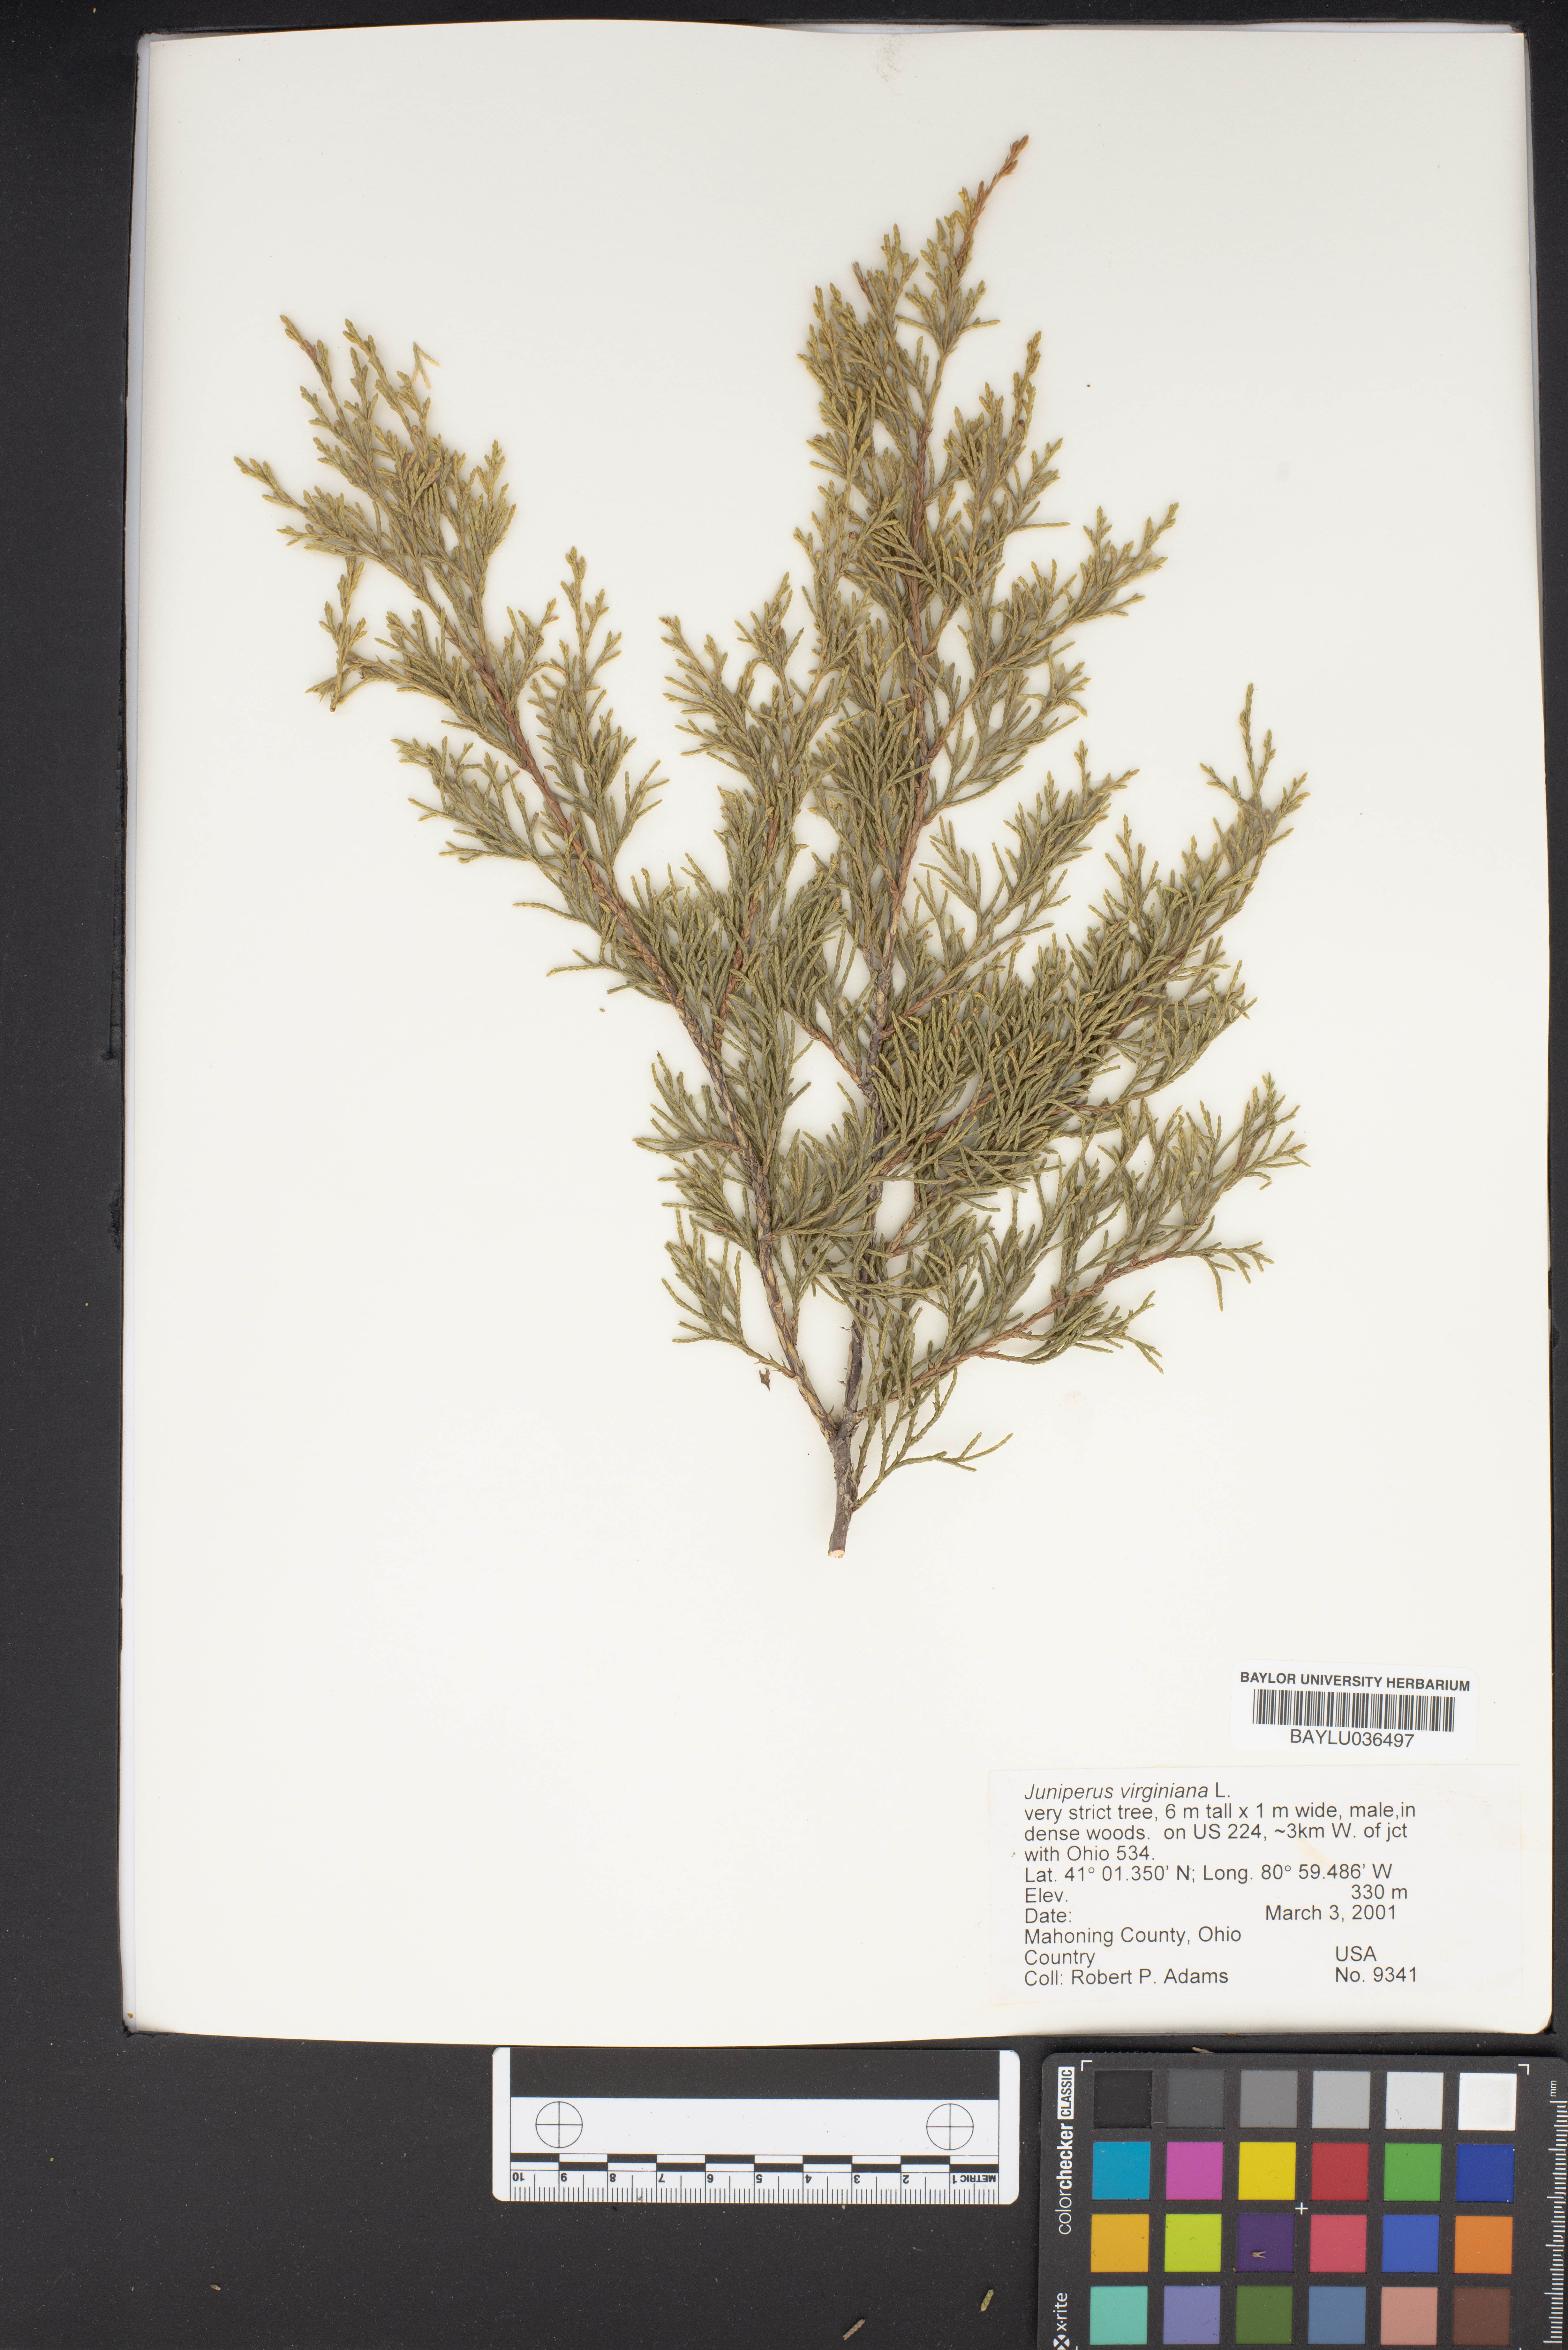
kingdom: Plantae
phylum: Tracheophyta
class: Pinopsida
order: Pinales
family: Cupressaceae
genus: Juniperus
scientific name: Juniperus virginiana
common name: Red juniper
